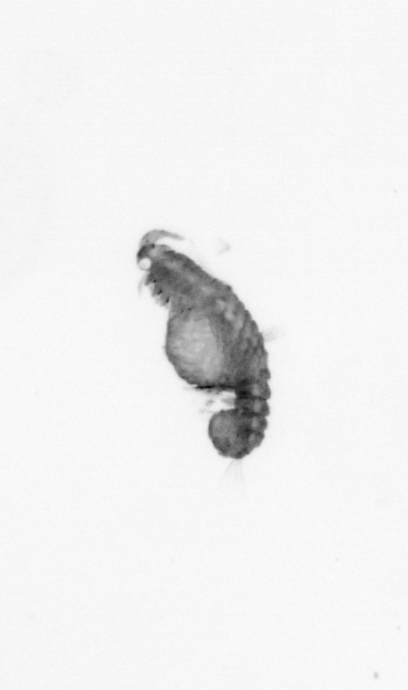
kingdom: Animalia
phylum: Annelida
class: Polychaeta
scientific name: Polychaeta
